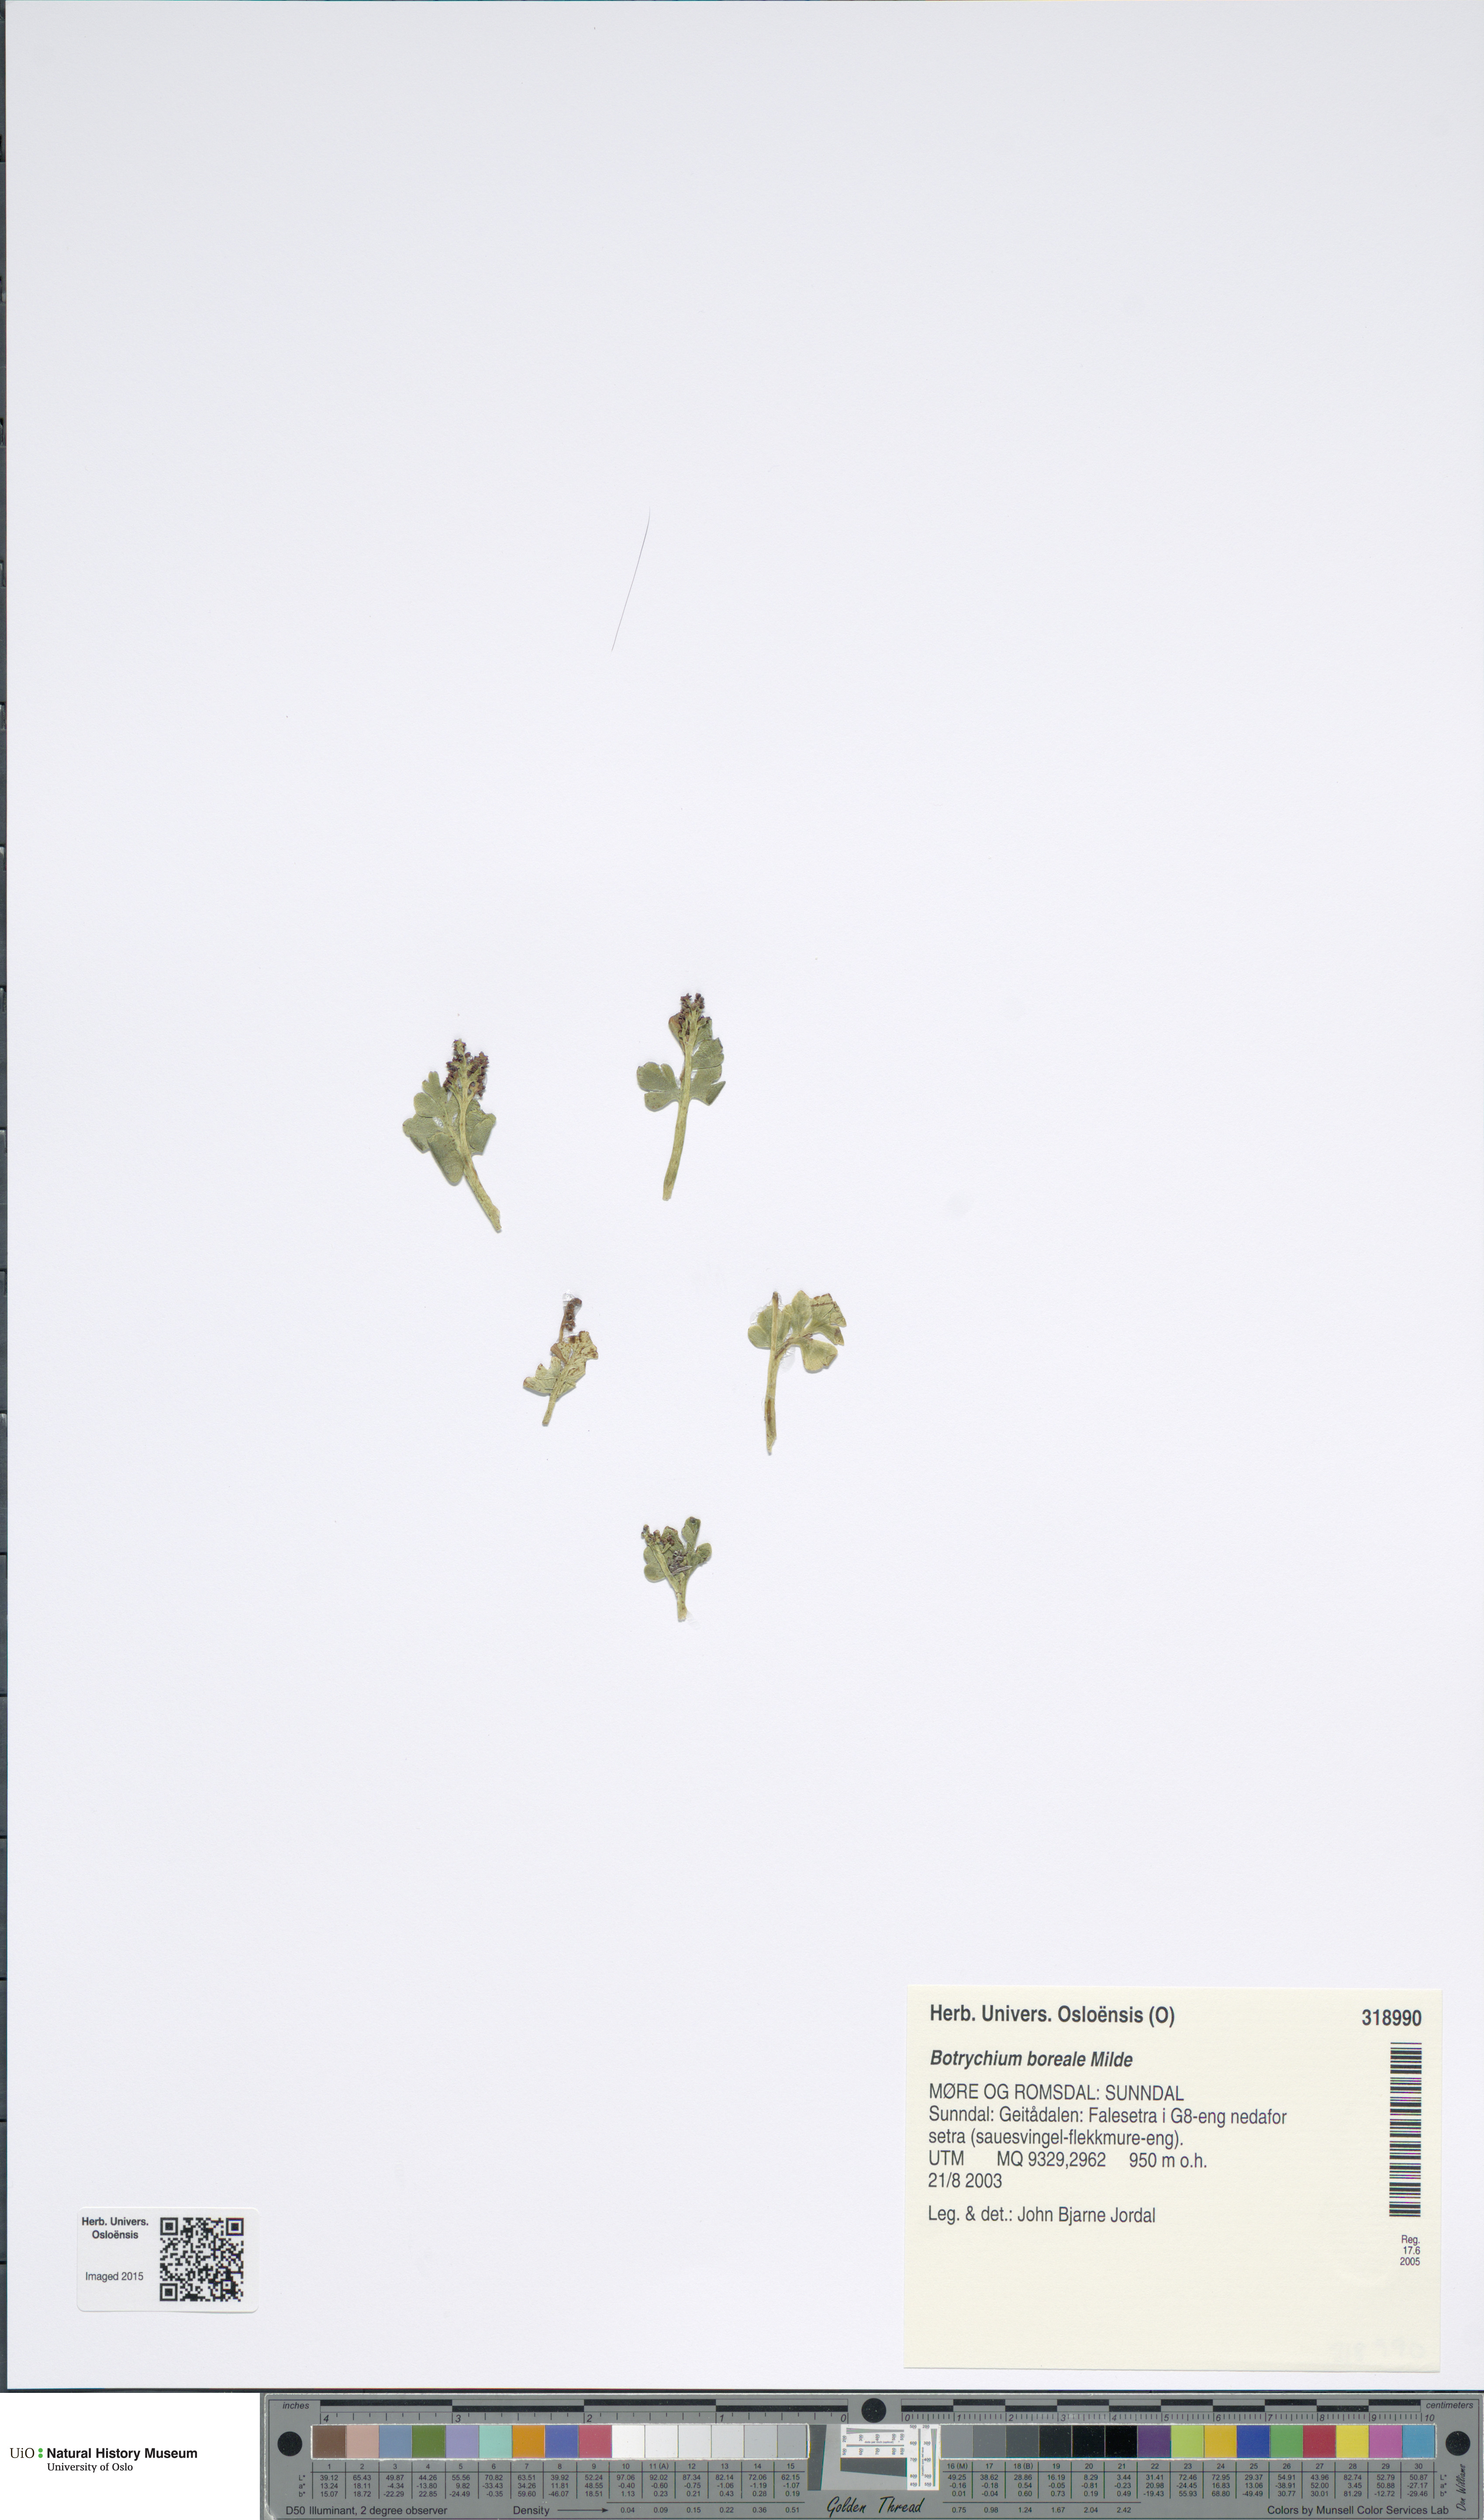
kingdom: Plantae
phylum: Tracheophyta
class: Polypodiopsida
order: Ophioglossales
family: Ophioglossaceae
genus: Botrychium
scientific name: Botrychium boreale
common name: Boreal moonwort
